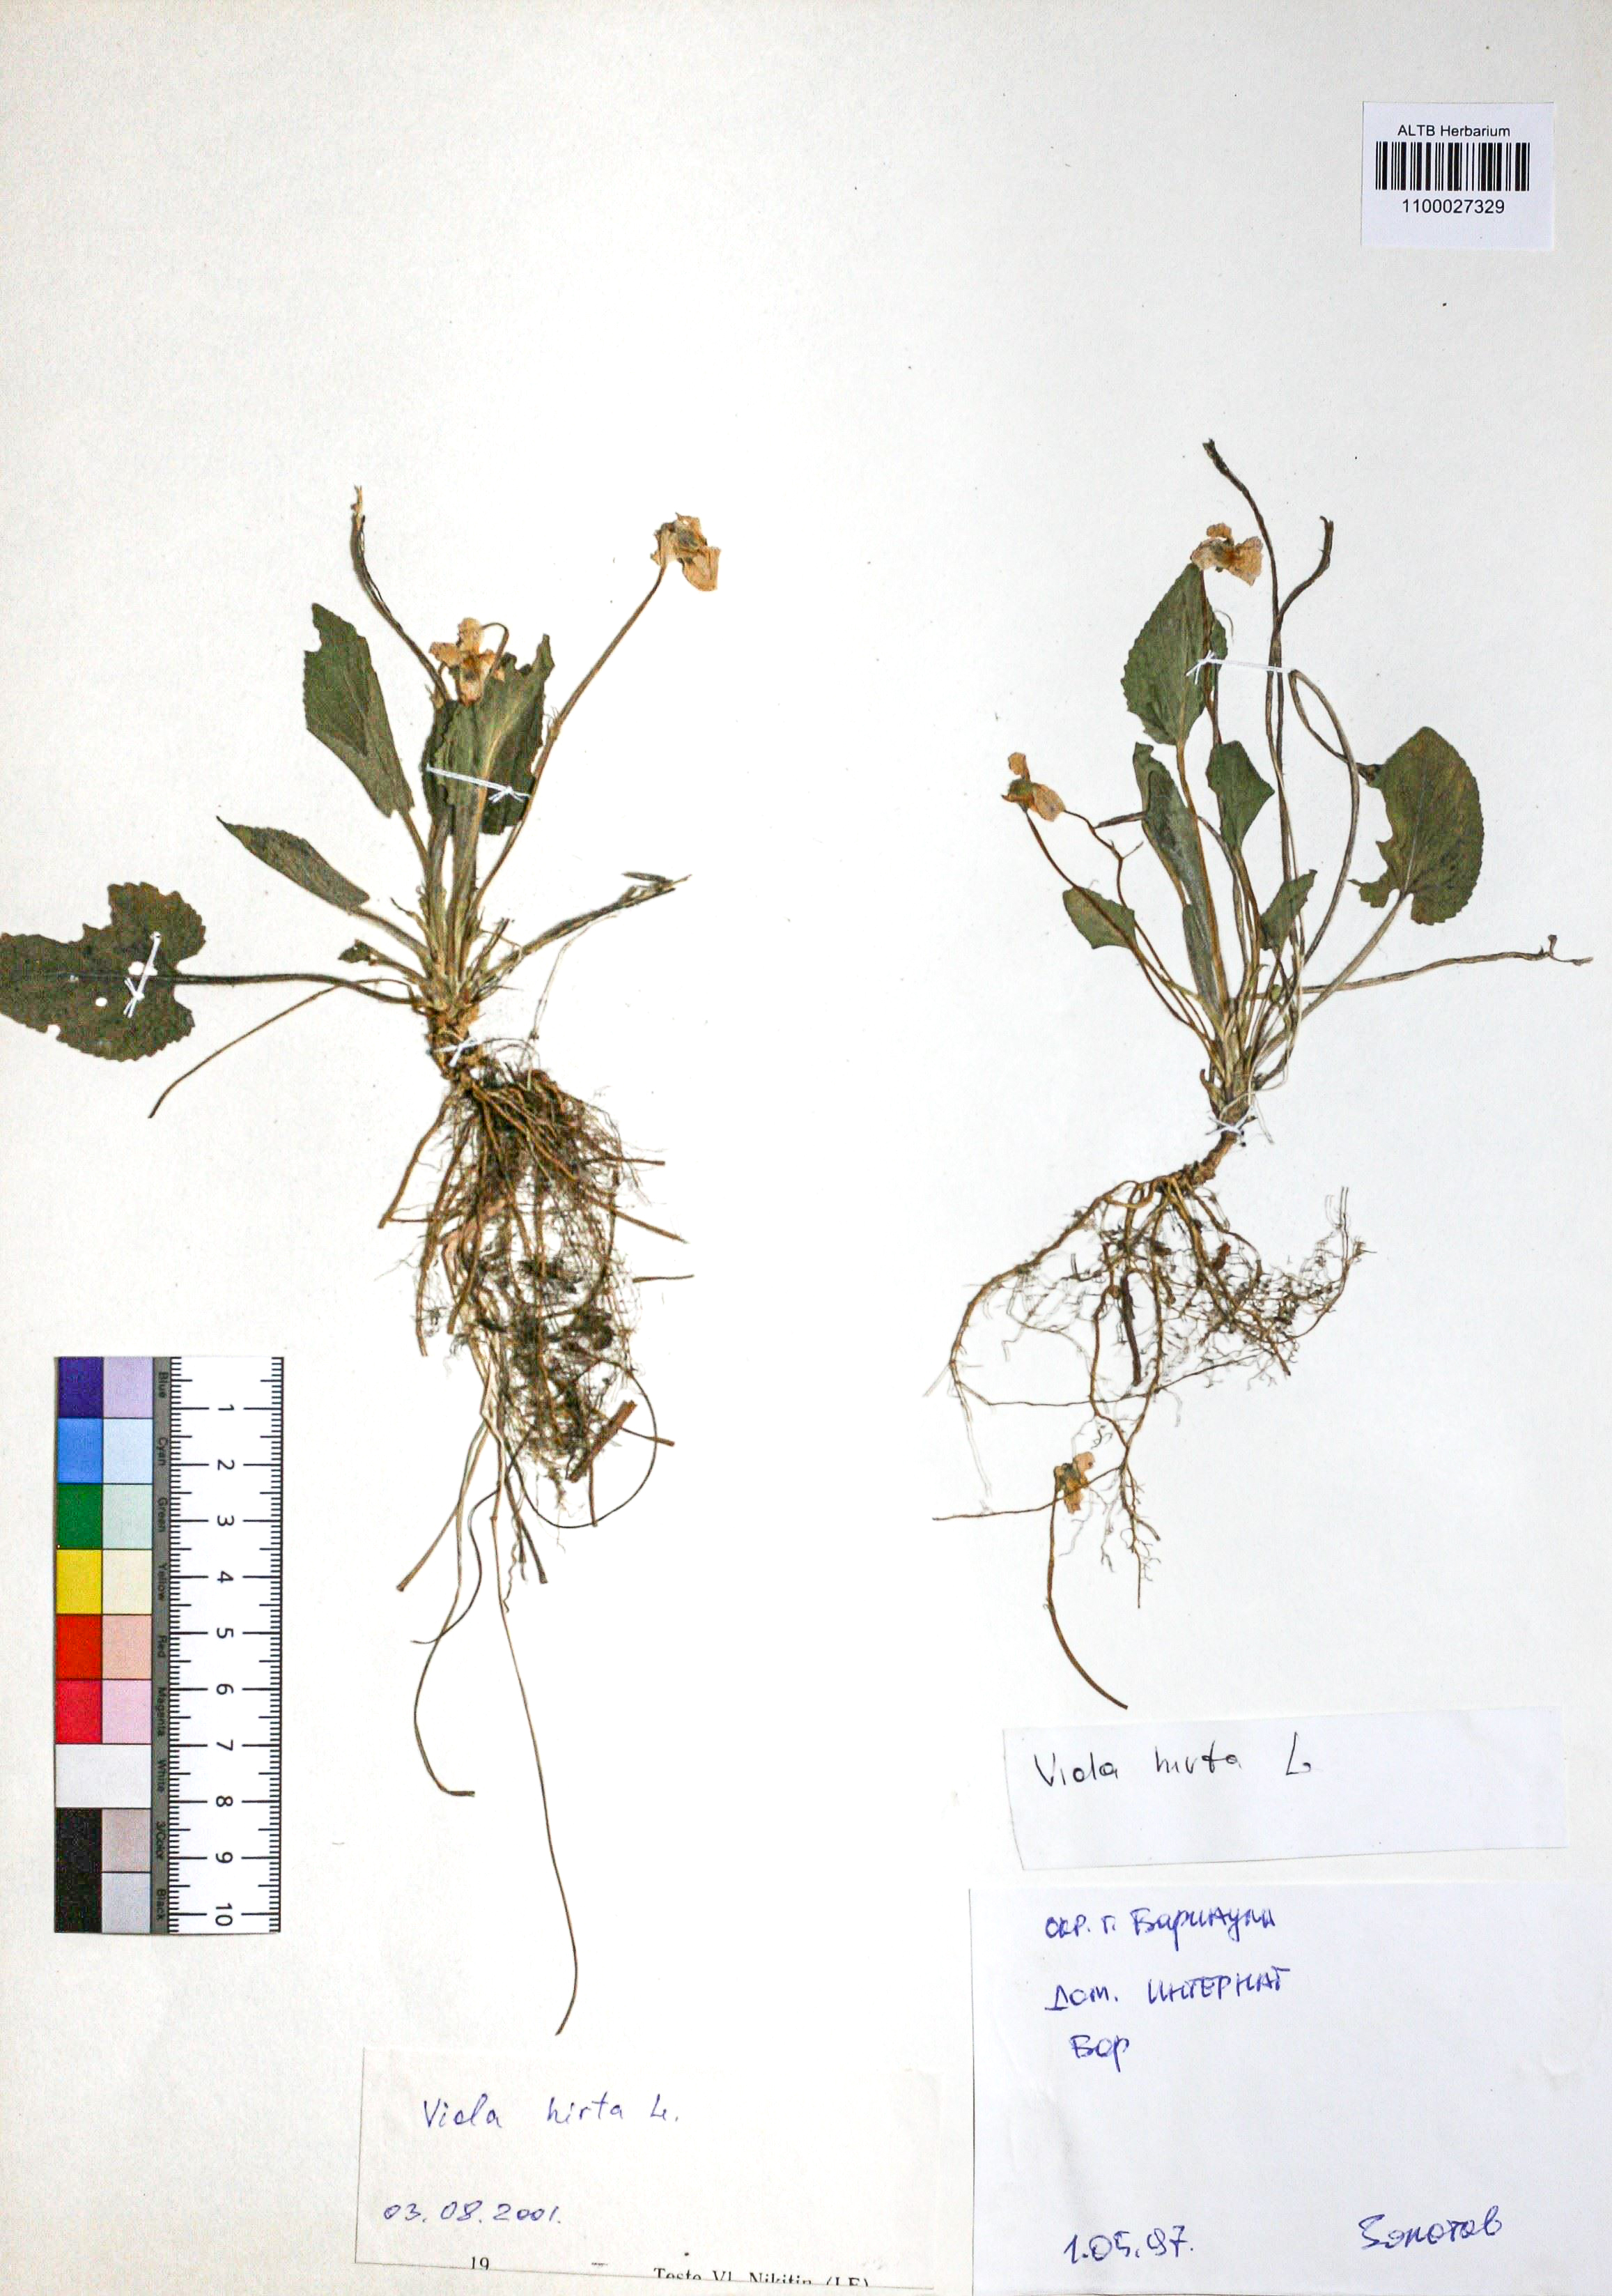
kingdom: Plantae
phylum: Tracheophyta
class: Magnoliopsida
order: Malpighiales
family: Violaceae
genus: Viola
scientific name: Viola hirta
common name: Hairy violet
